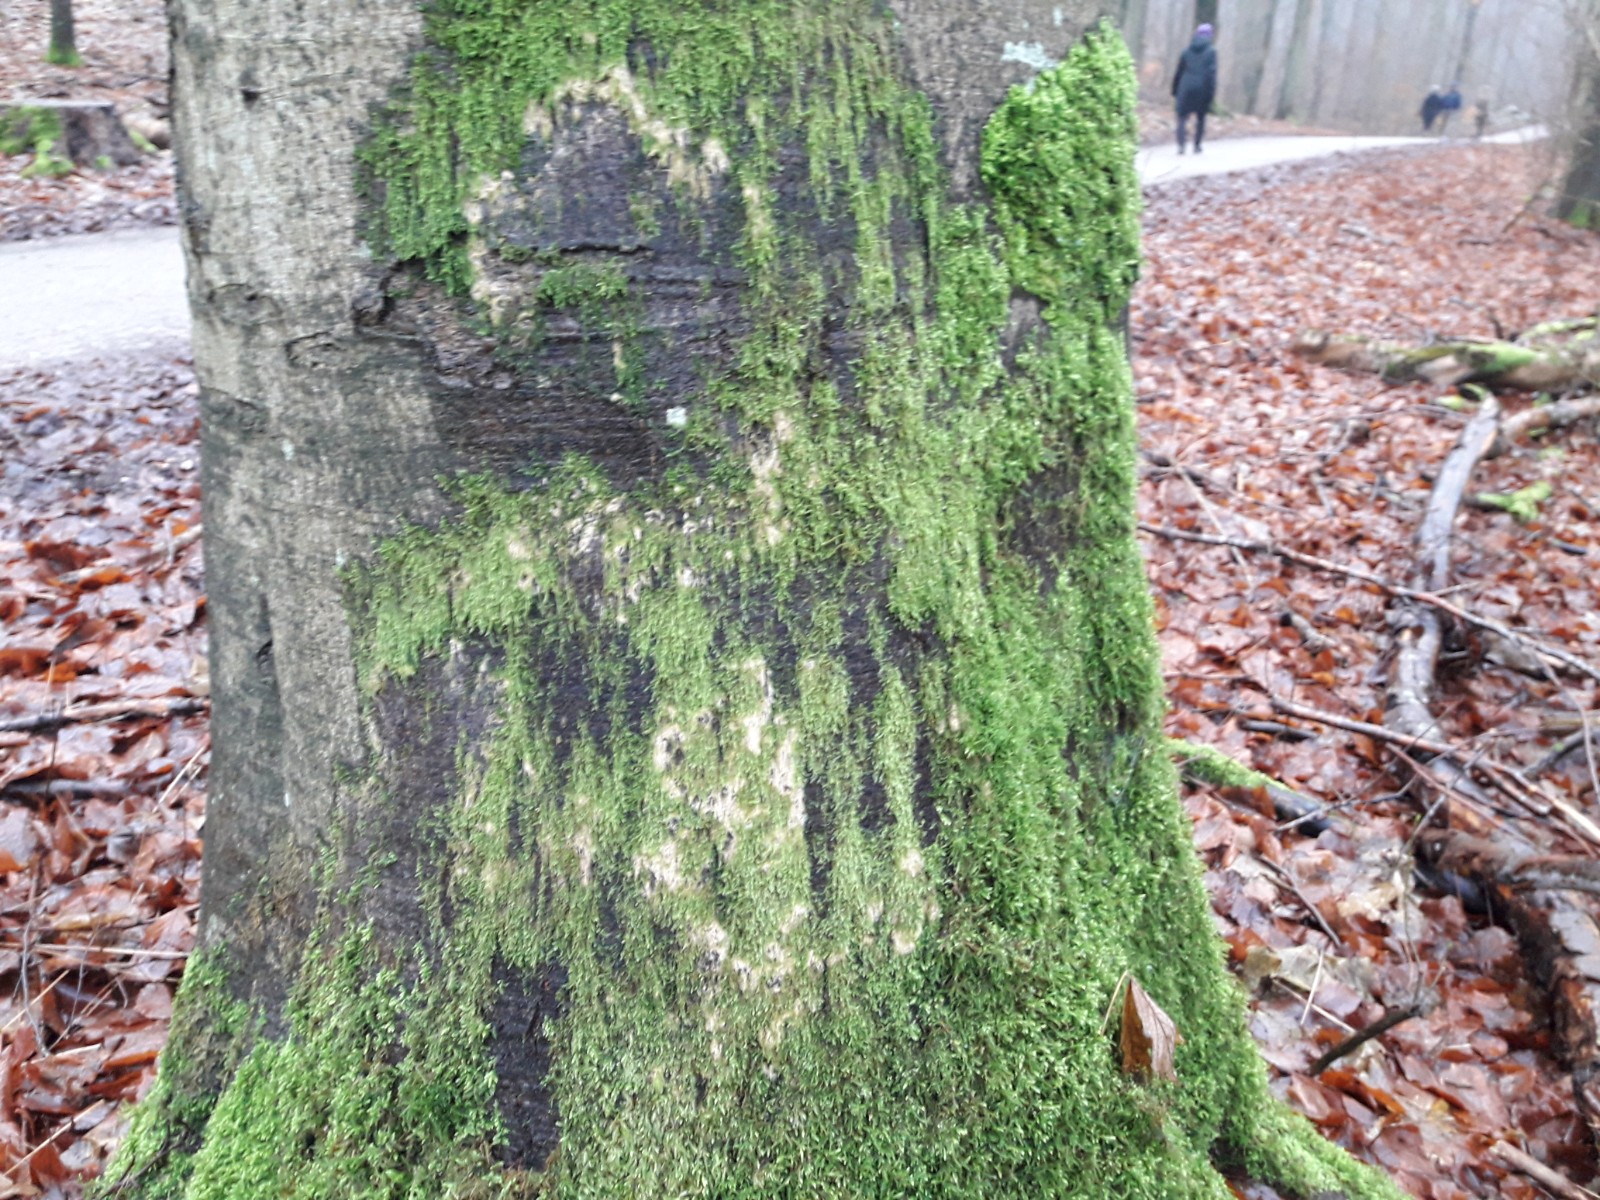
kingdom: Plantae
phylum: Bryophyta
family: Agaricomycetidae
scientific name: Agaricomycetidae
